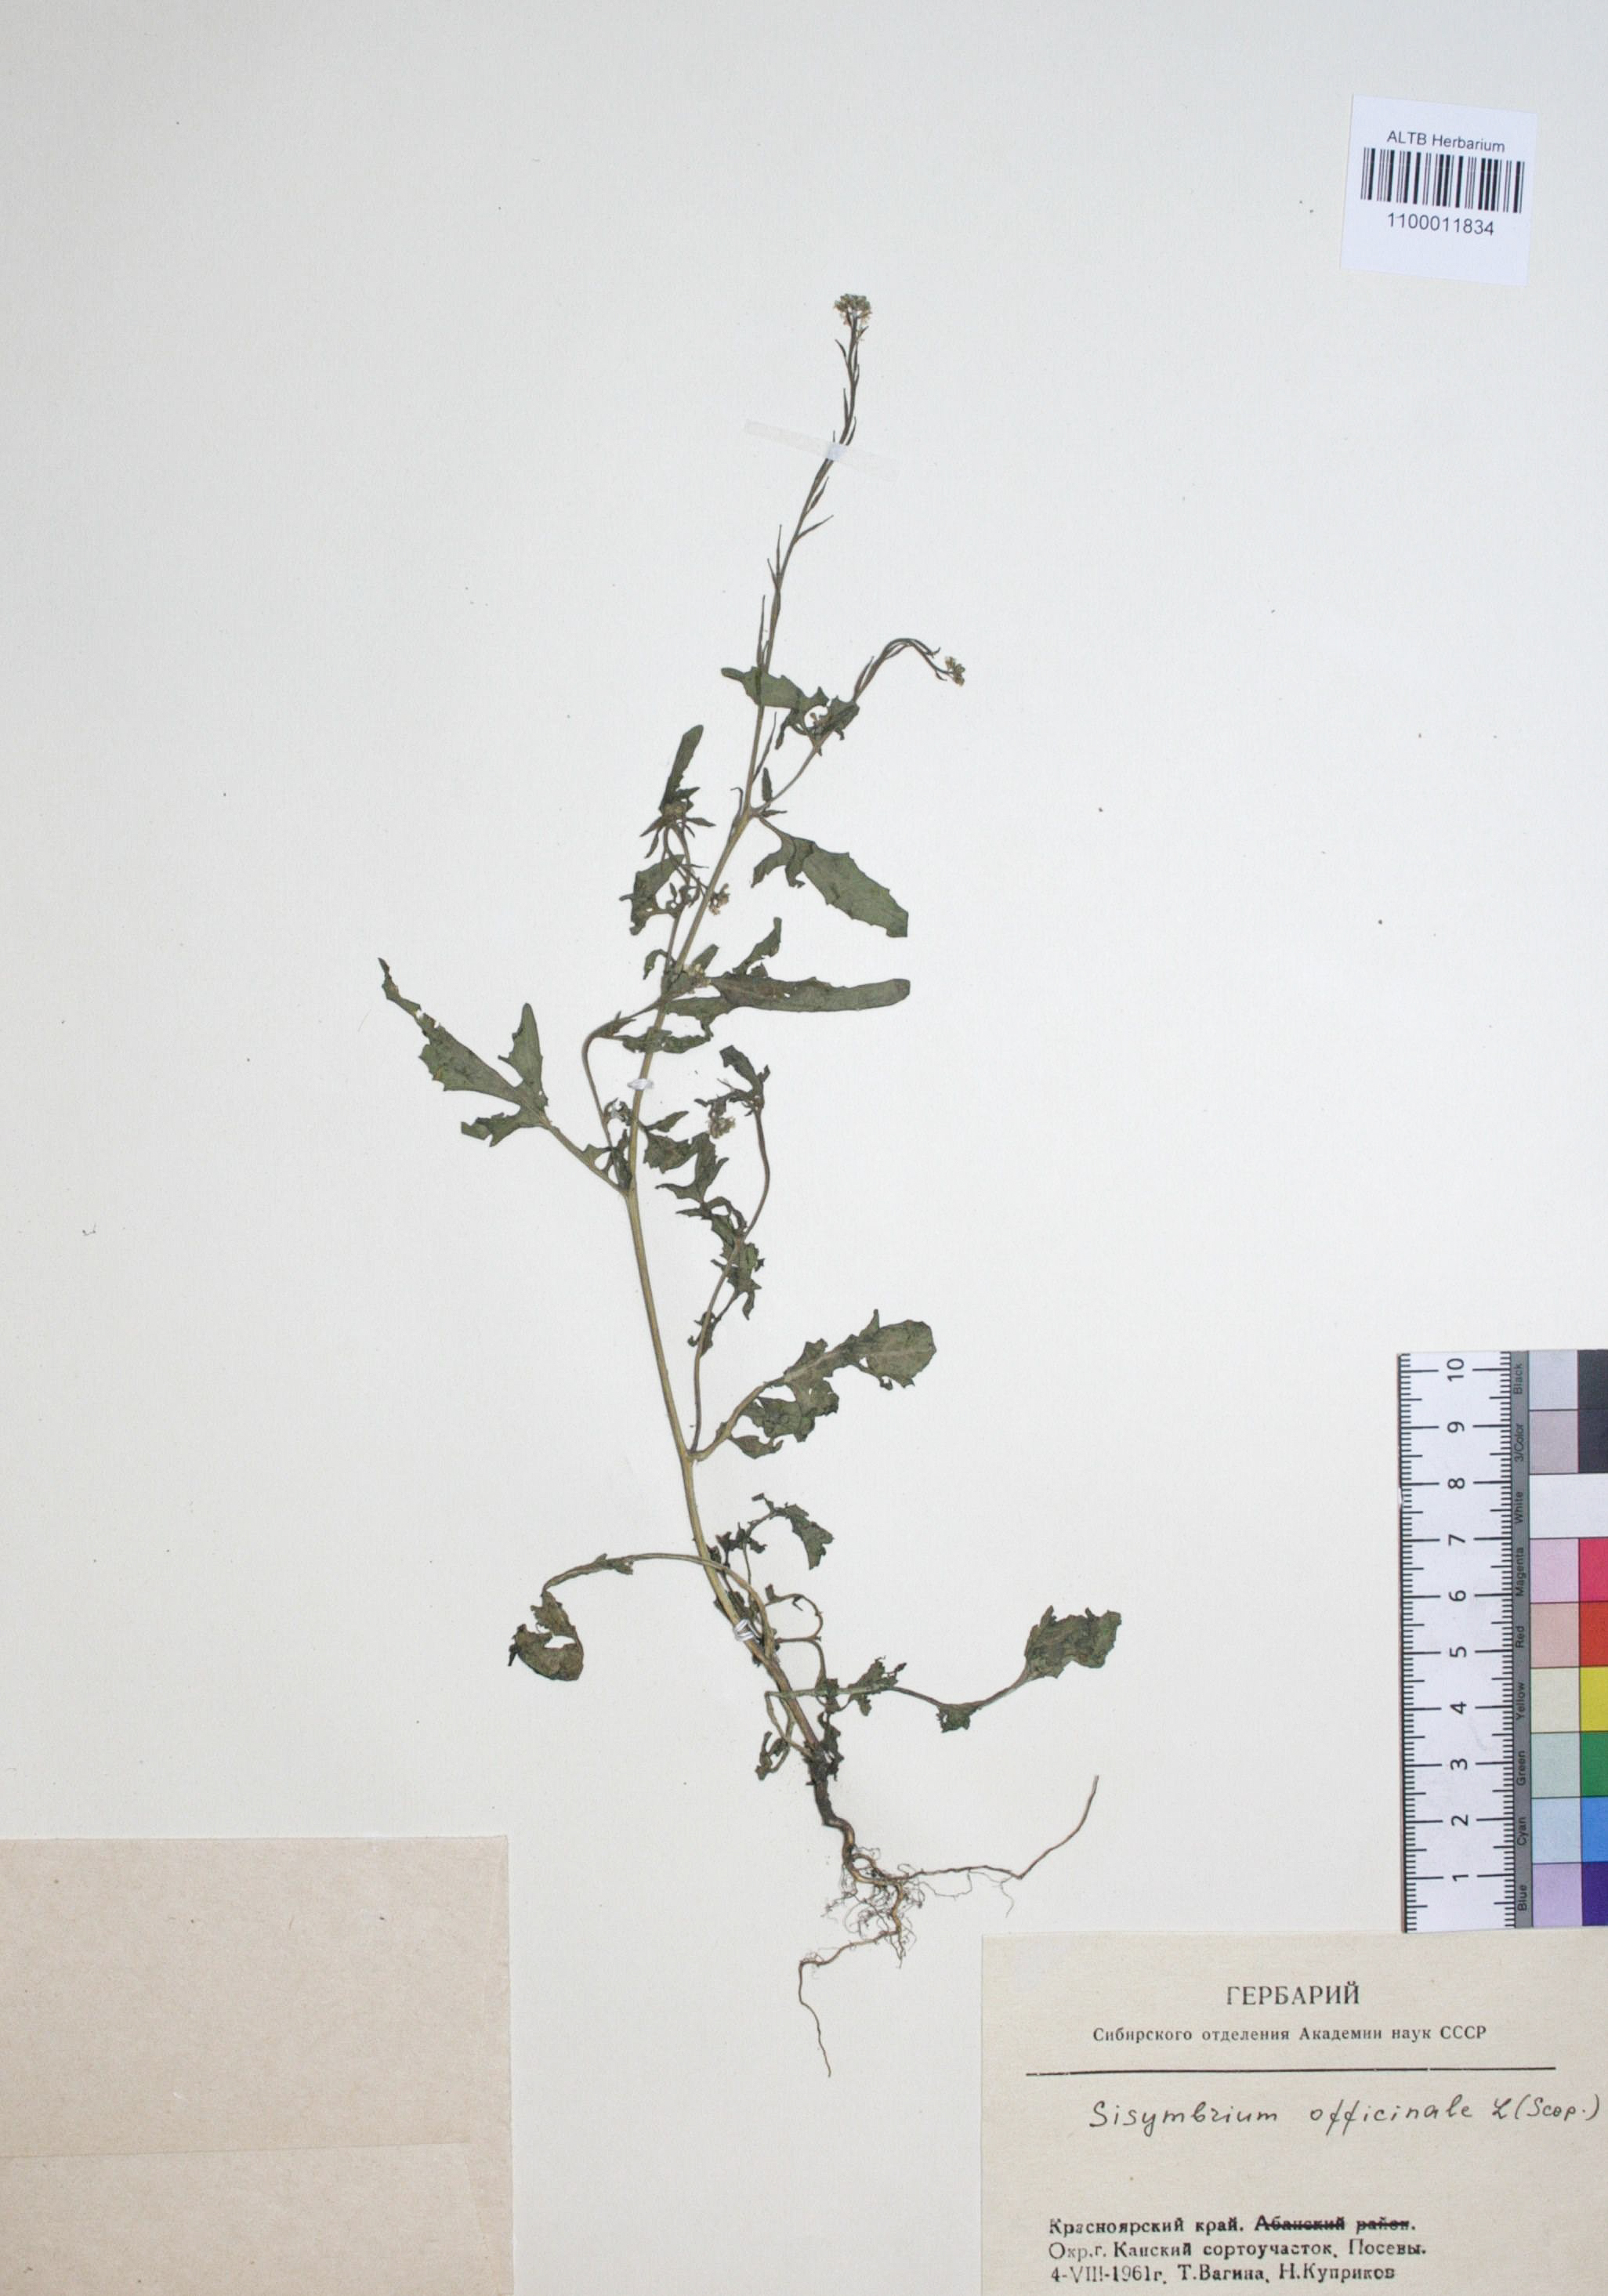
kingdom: Plantae
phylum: Tracheophyta
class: Magnoliopsida
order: Brassicales
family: Brassicaceae
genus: Sisymbrium
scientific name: Sisymbrium officinale
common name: Hedge mustard
